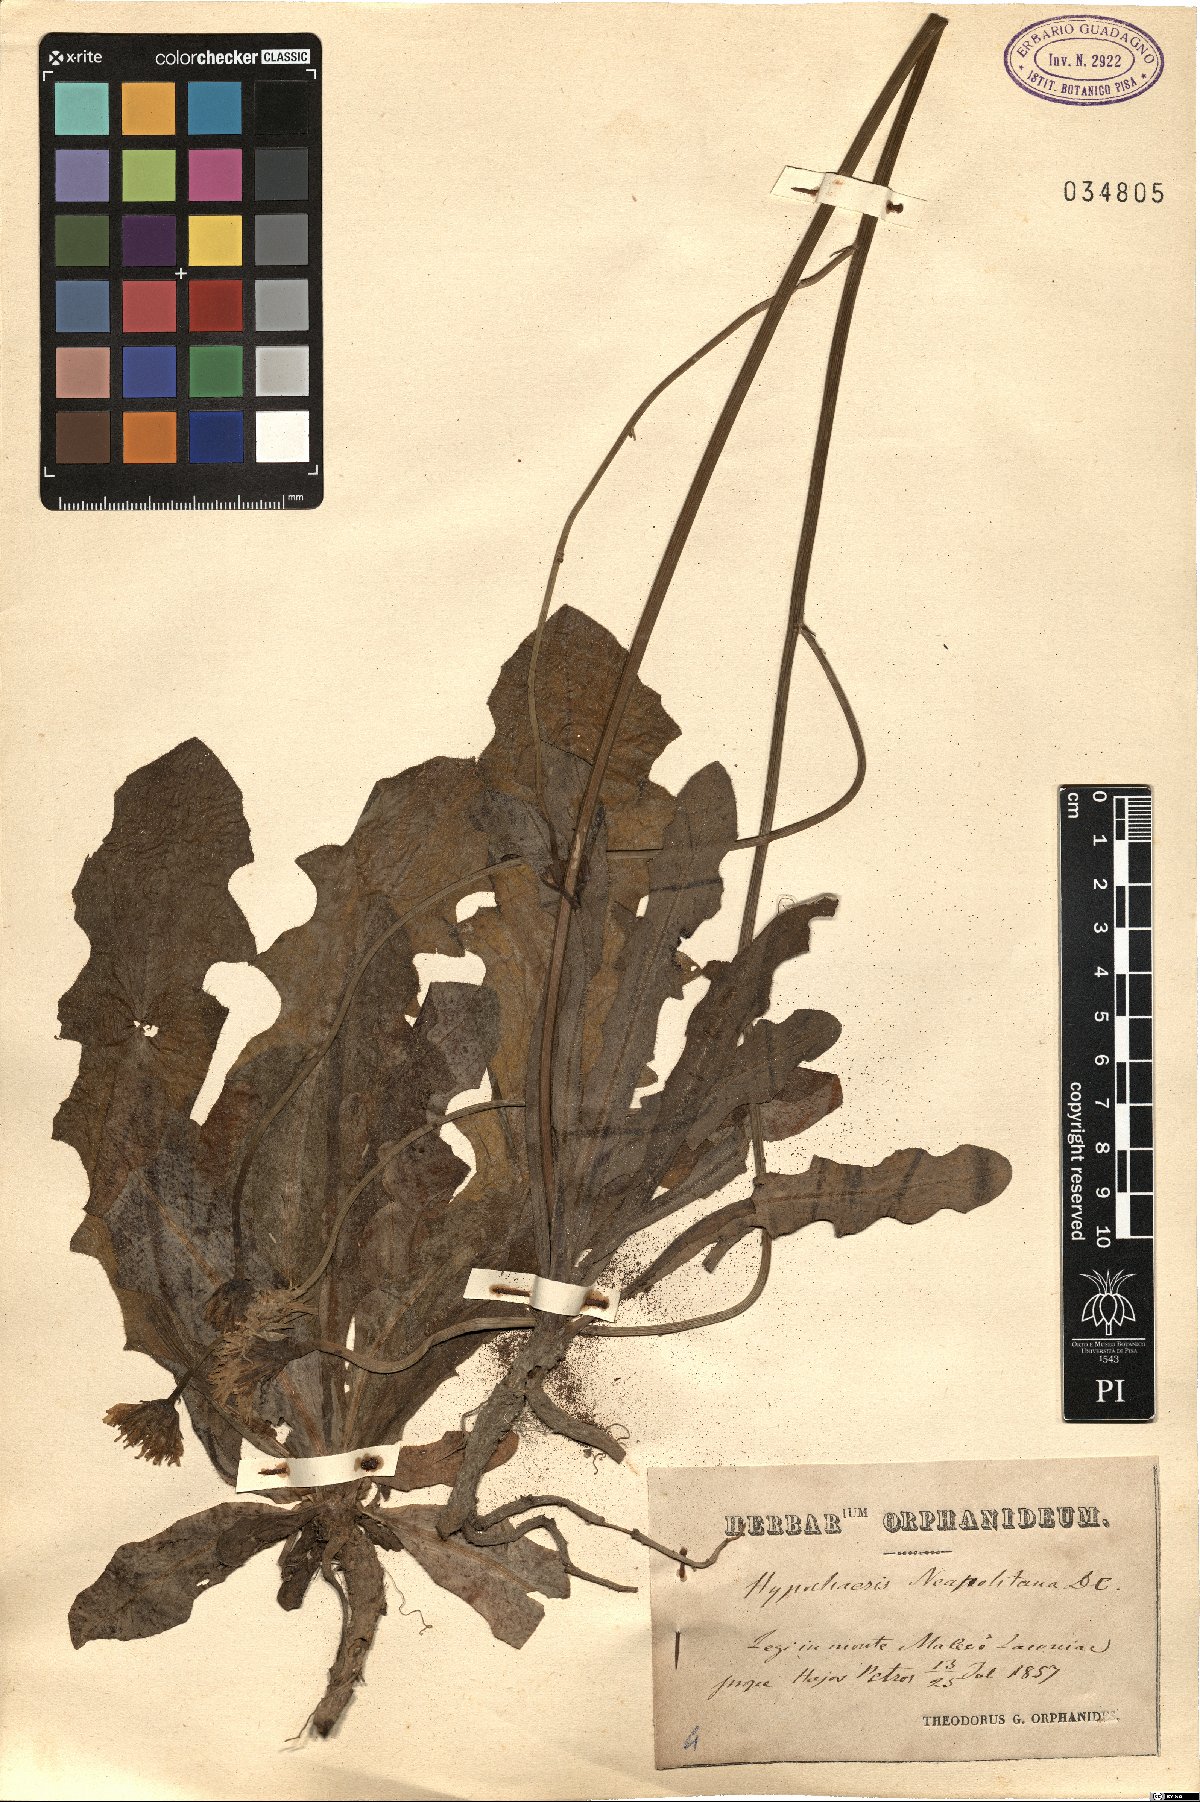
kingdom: Plantae
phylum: Tracheophyta
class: Magnoliopsida
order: Asterales
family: Asteraceae
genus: Hypochaeris
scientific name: Hypochaeris radicata
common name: Flatweed
